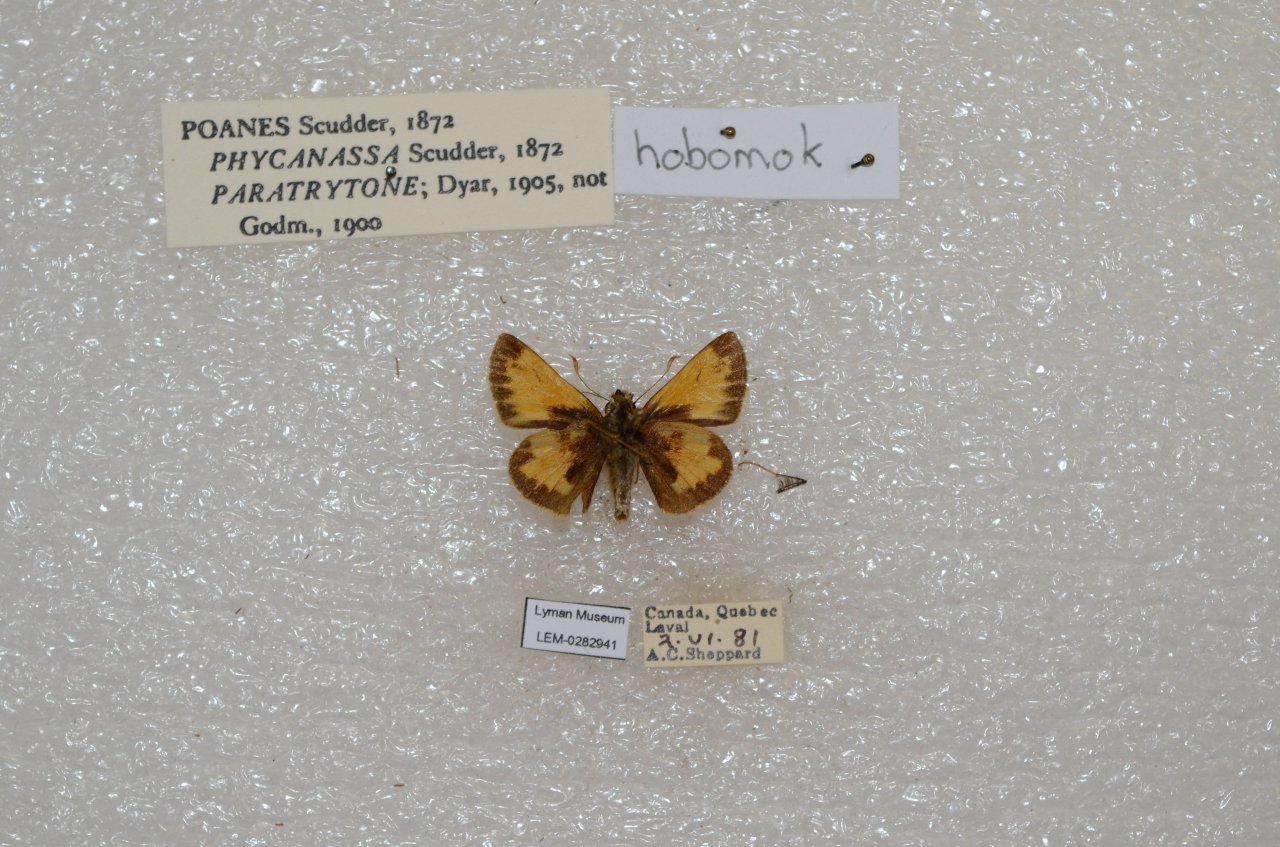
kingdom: Animalia
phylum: Arthropoda
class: Insecta
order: Lepidoptera
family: Hesperiidae
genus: Lon
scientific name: Lon hobomok
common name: Hobomok Skipper
